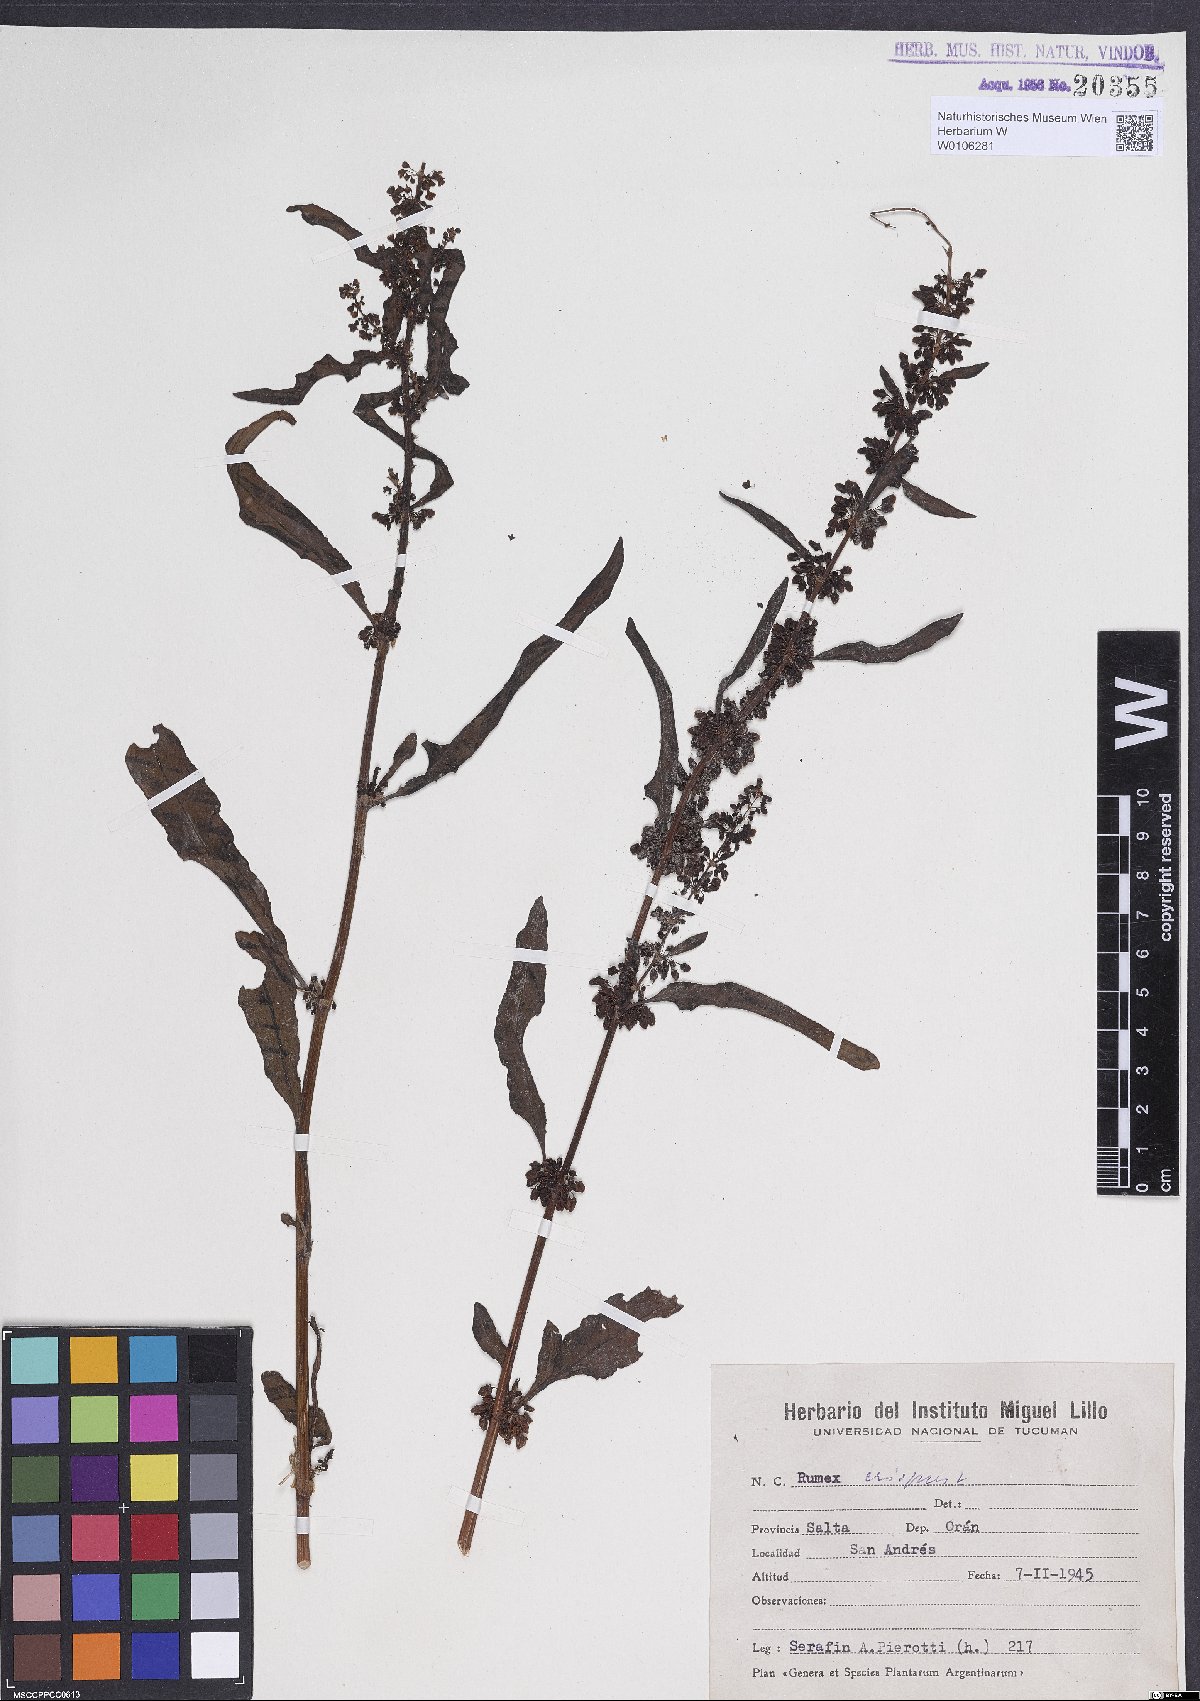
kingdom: Plantae
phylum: Tracheophyta
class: Magnoliopsida
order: Caryophyllales
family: Polygonaceae
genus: Rumex
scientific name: Rumex crispus
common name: Curled dock
